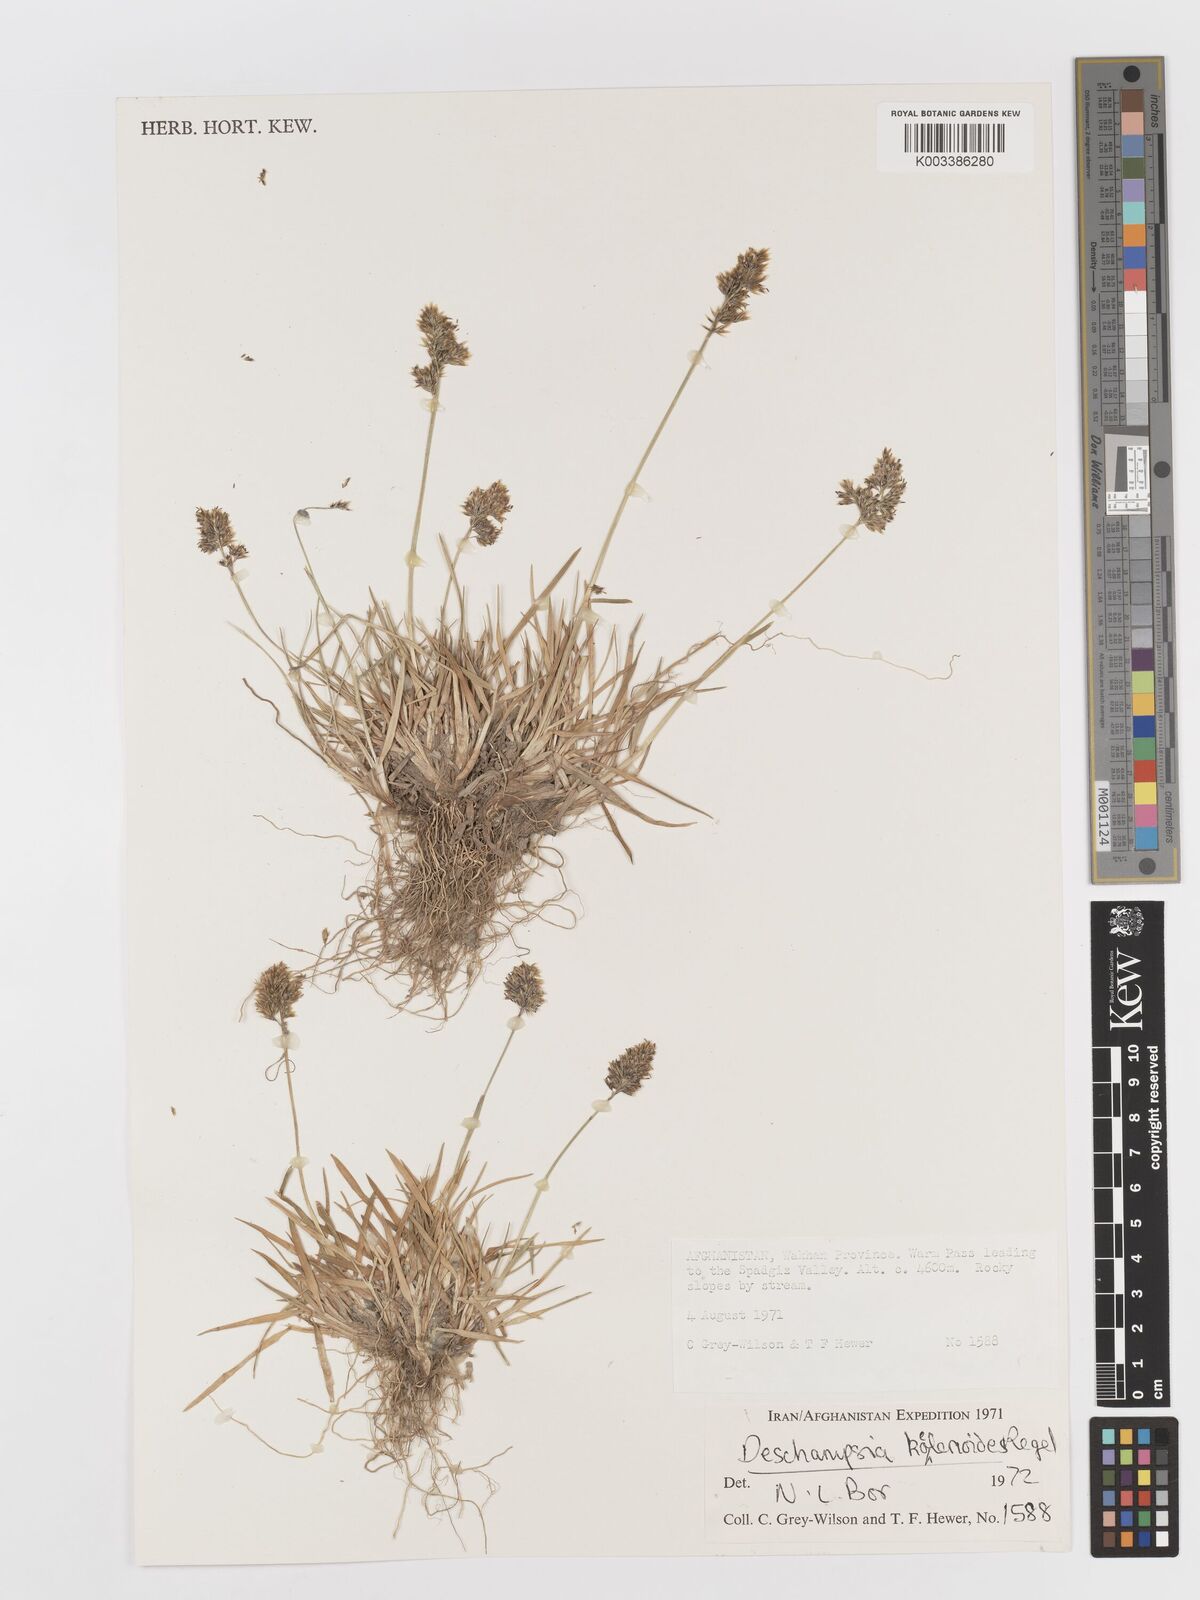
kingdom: Plantae
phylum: Tracheophyta
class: Liliopsida
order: Poales
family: Poaceae
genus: Deschampsia
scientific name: Deschampsia koelerioides
